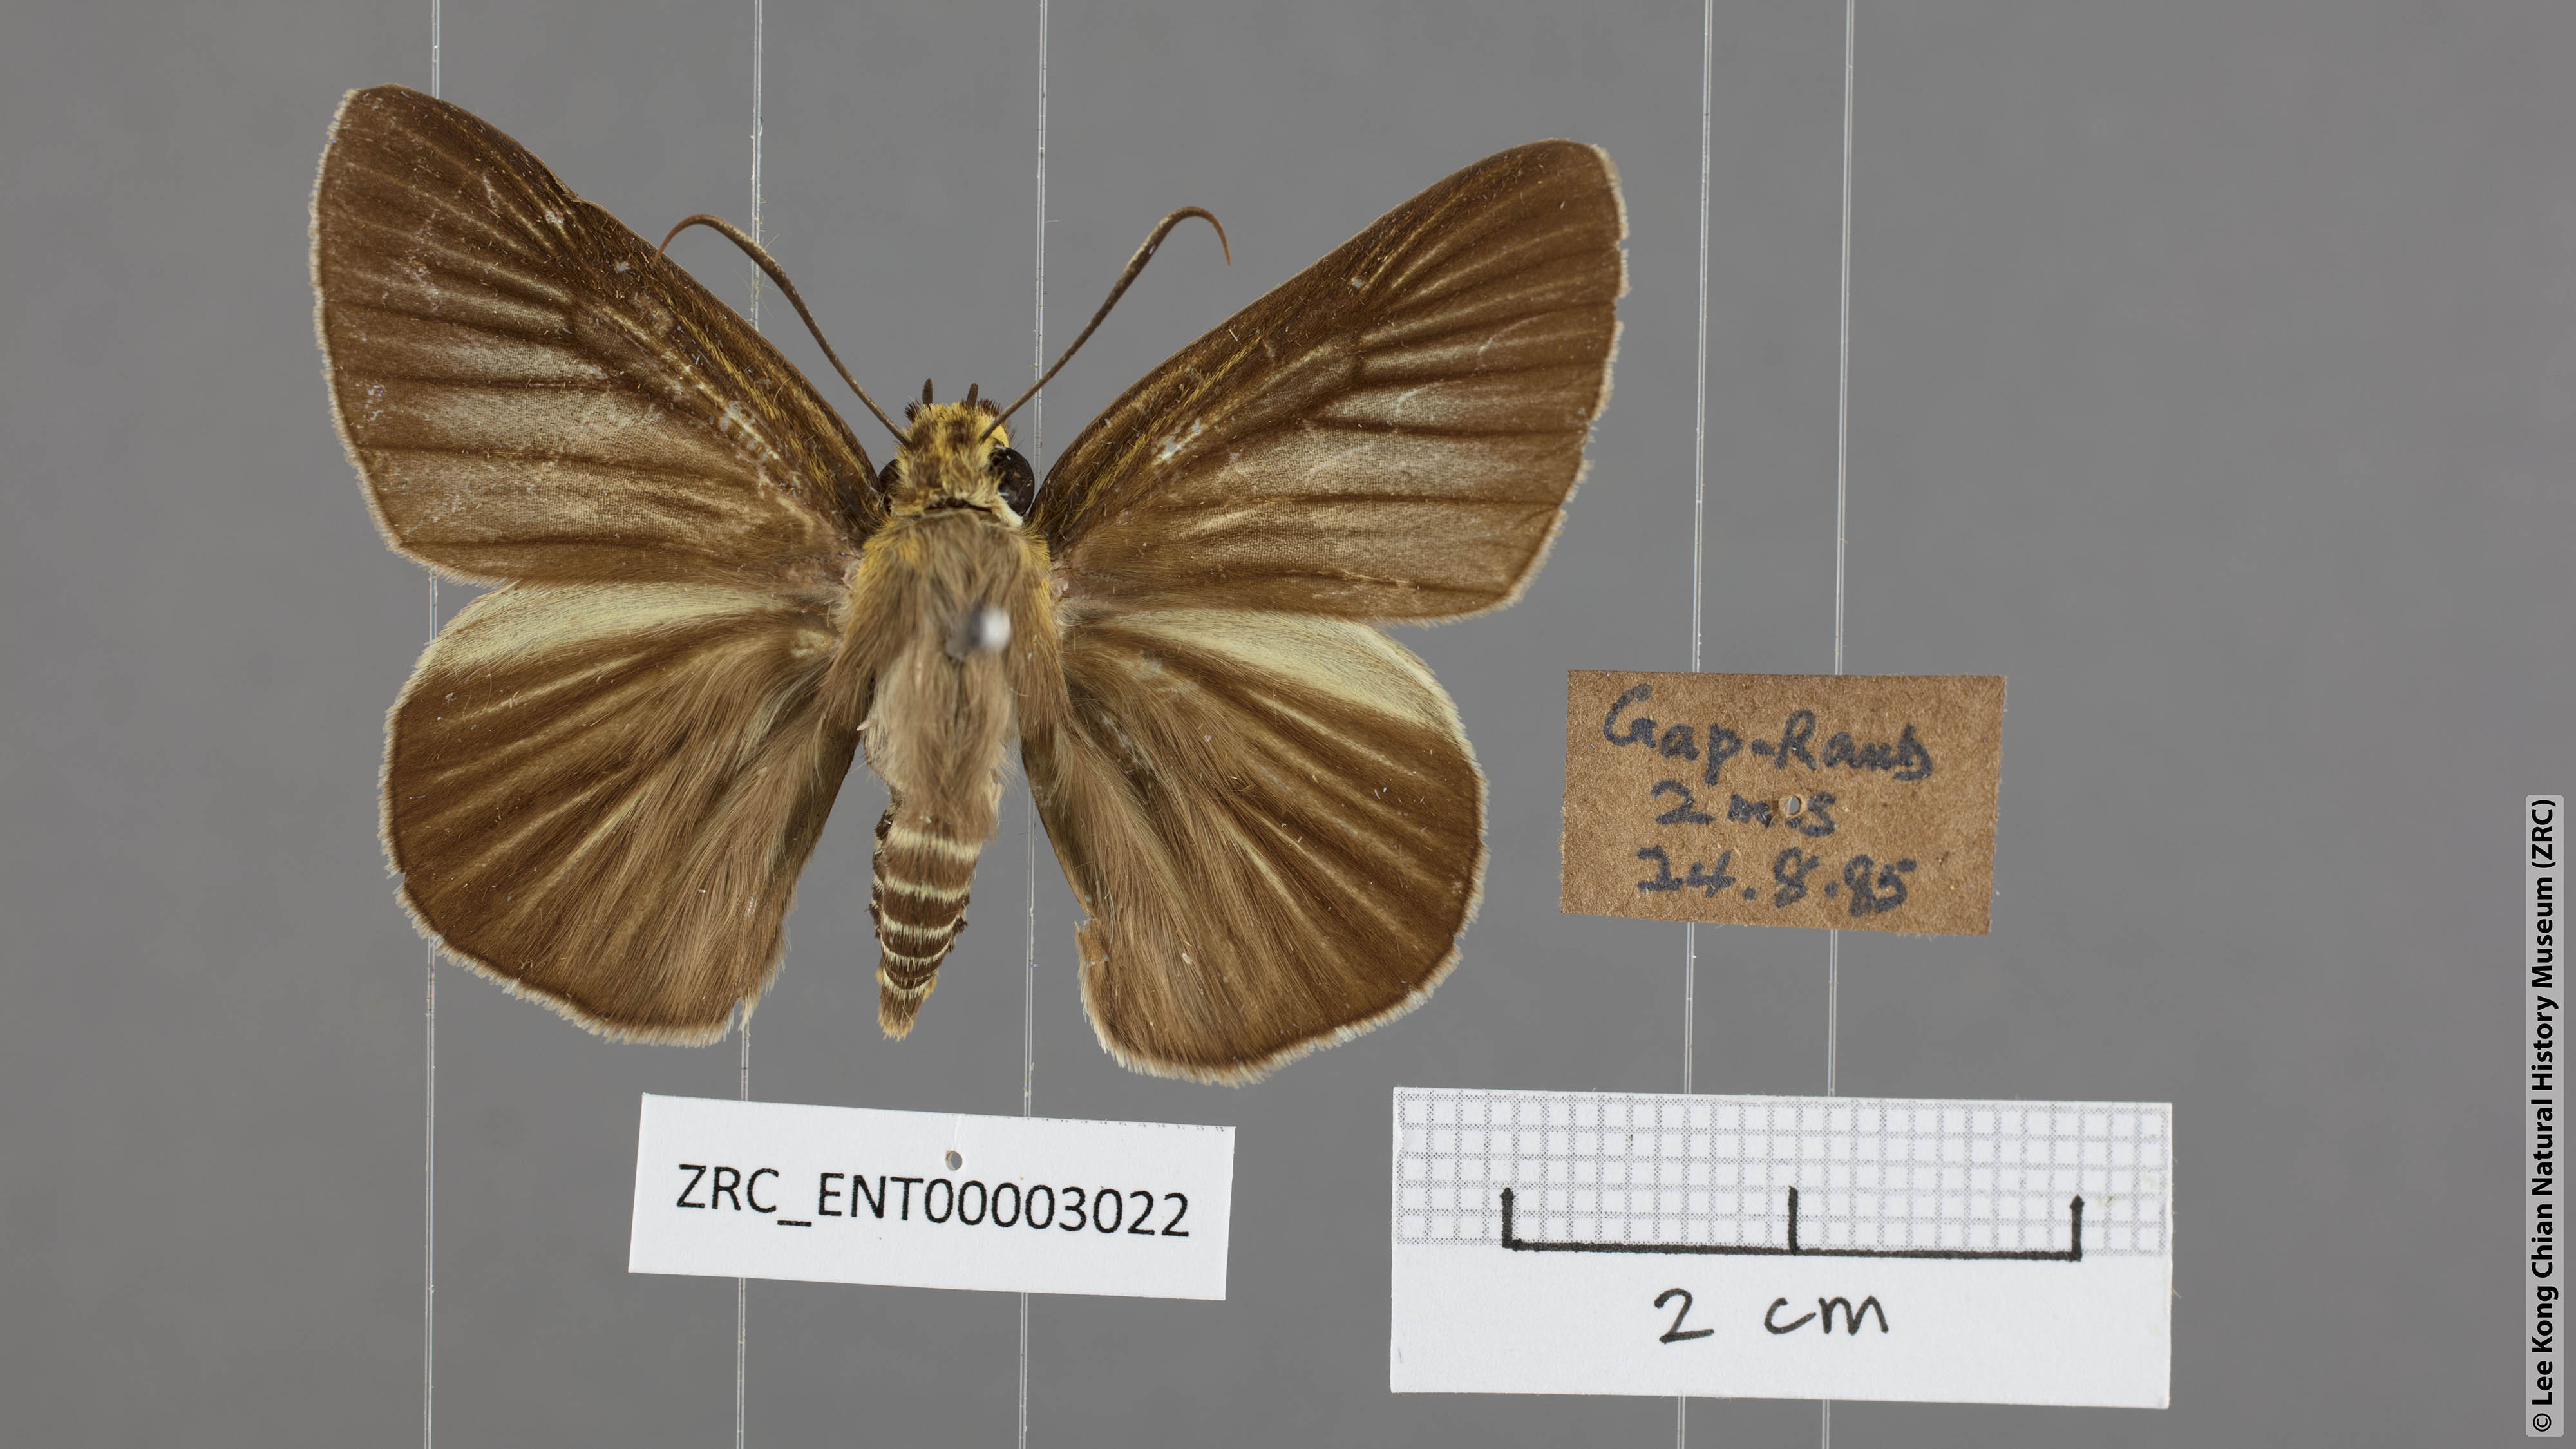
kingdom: Animalia
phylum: Arthropoda
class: Insecta
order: Lepidoptera
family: Hesperiidae
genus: Bibasis
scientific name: Bibasis gomata
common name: Pale green awlet
